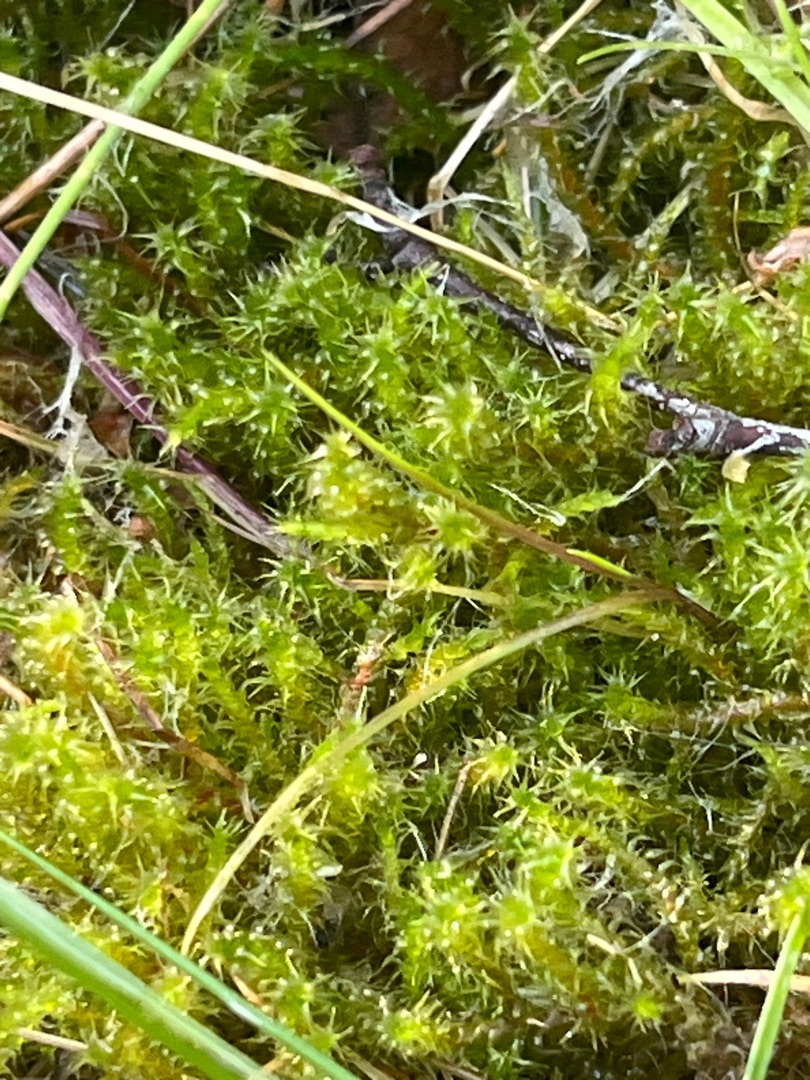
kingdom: Plantae
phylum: Bryophyta
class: Bryopsida
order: Hypnales
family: Hylocomiaceae
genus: Rhytidiadelphus
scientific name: Rhytidiadelphus squarrosus
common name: Plæne-kransemos
